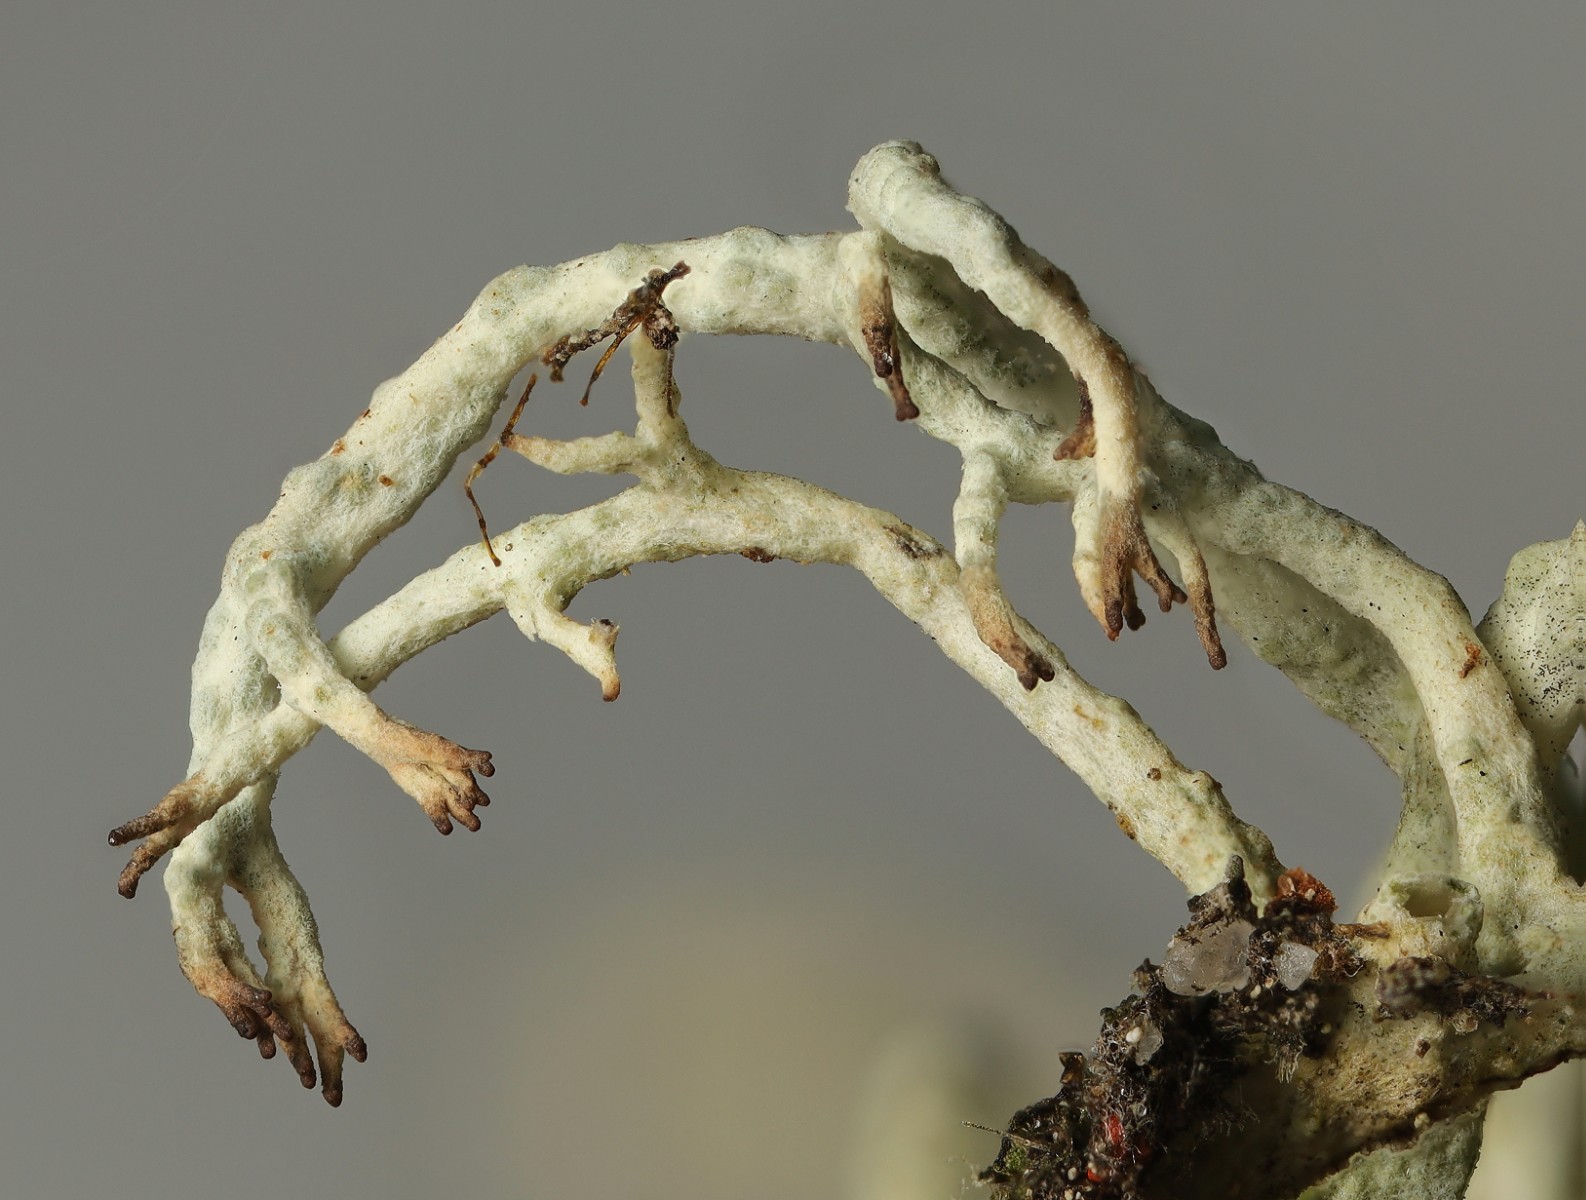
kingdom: Fungi
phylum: Ascomycota
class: Lecanoromycetes
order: Lecanorales
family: Cladoniaceae
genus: Cladonia
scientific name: Cladonia mitis
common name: mild rensdyrlav
